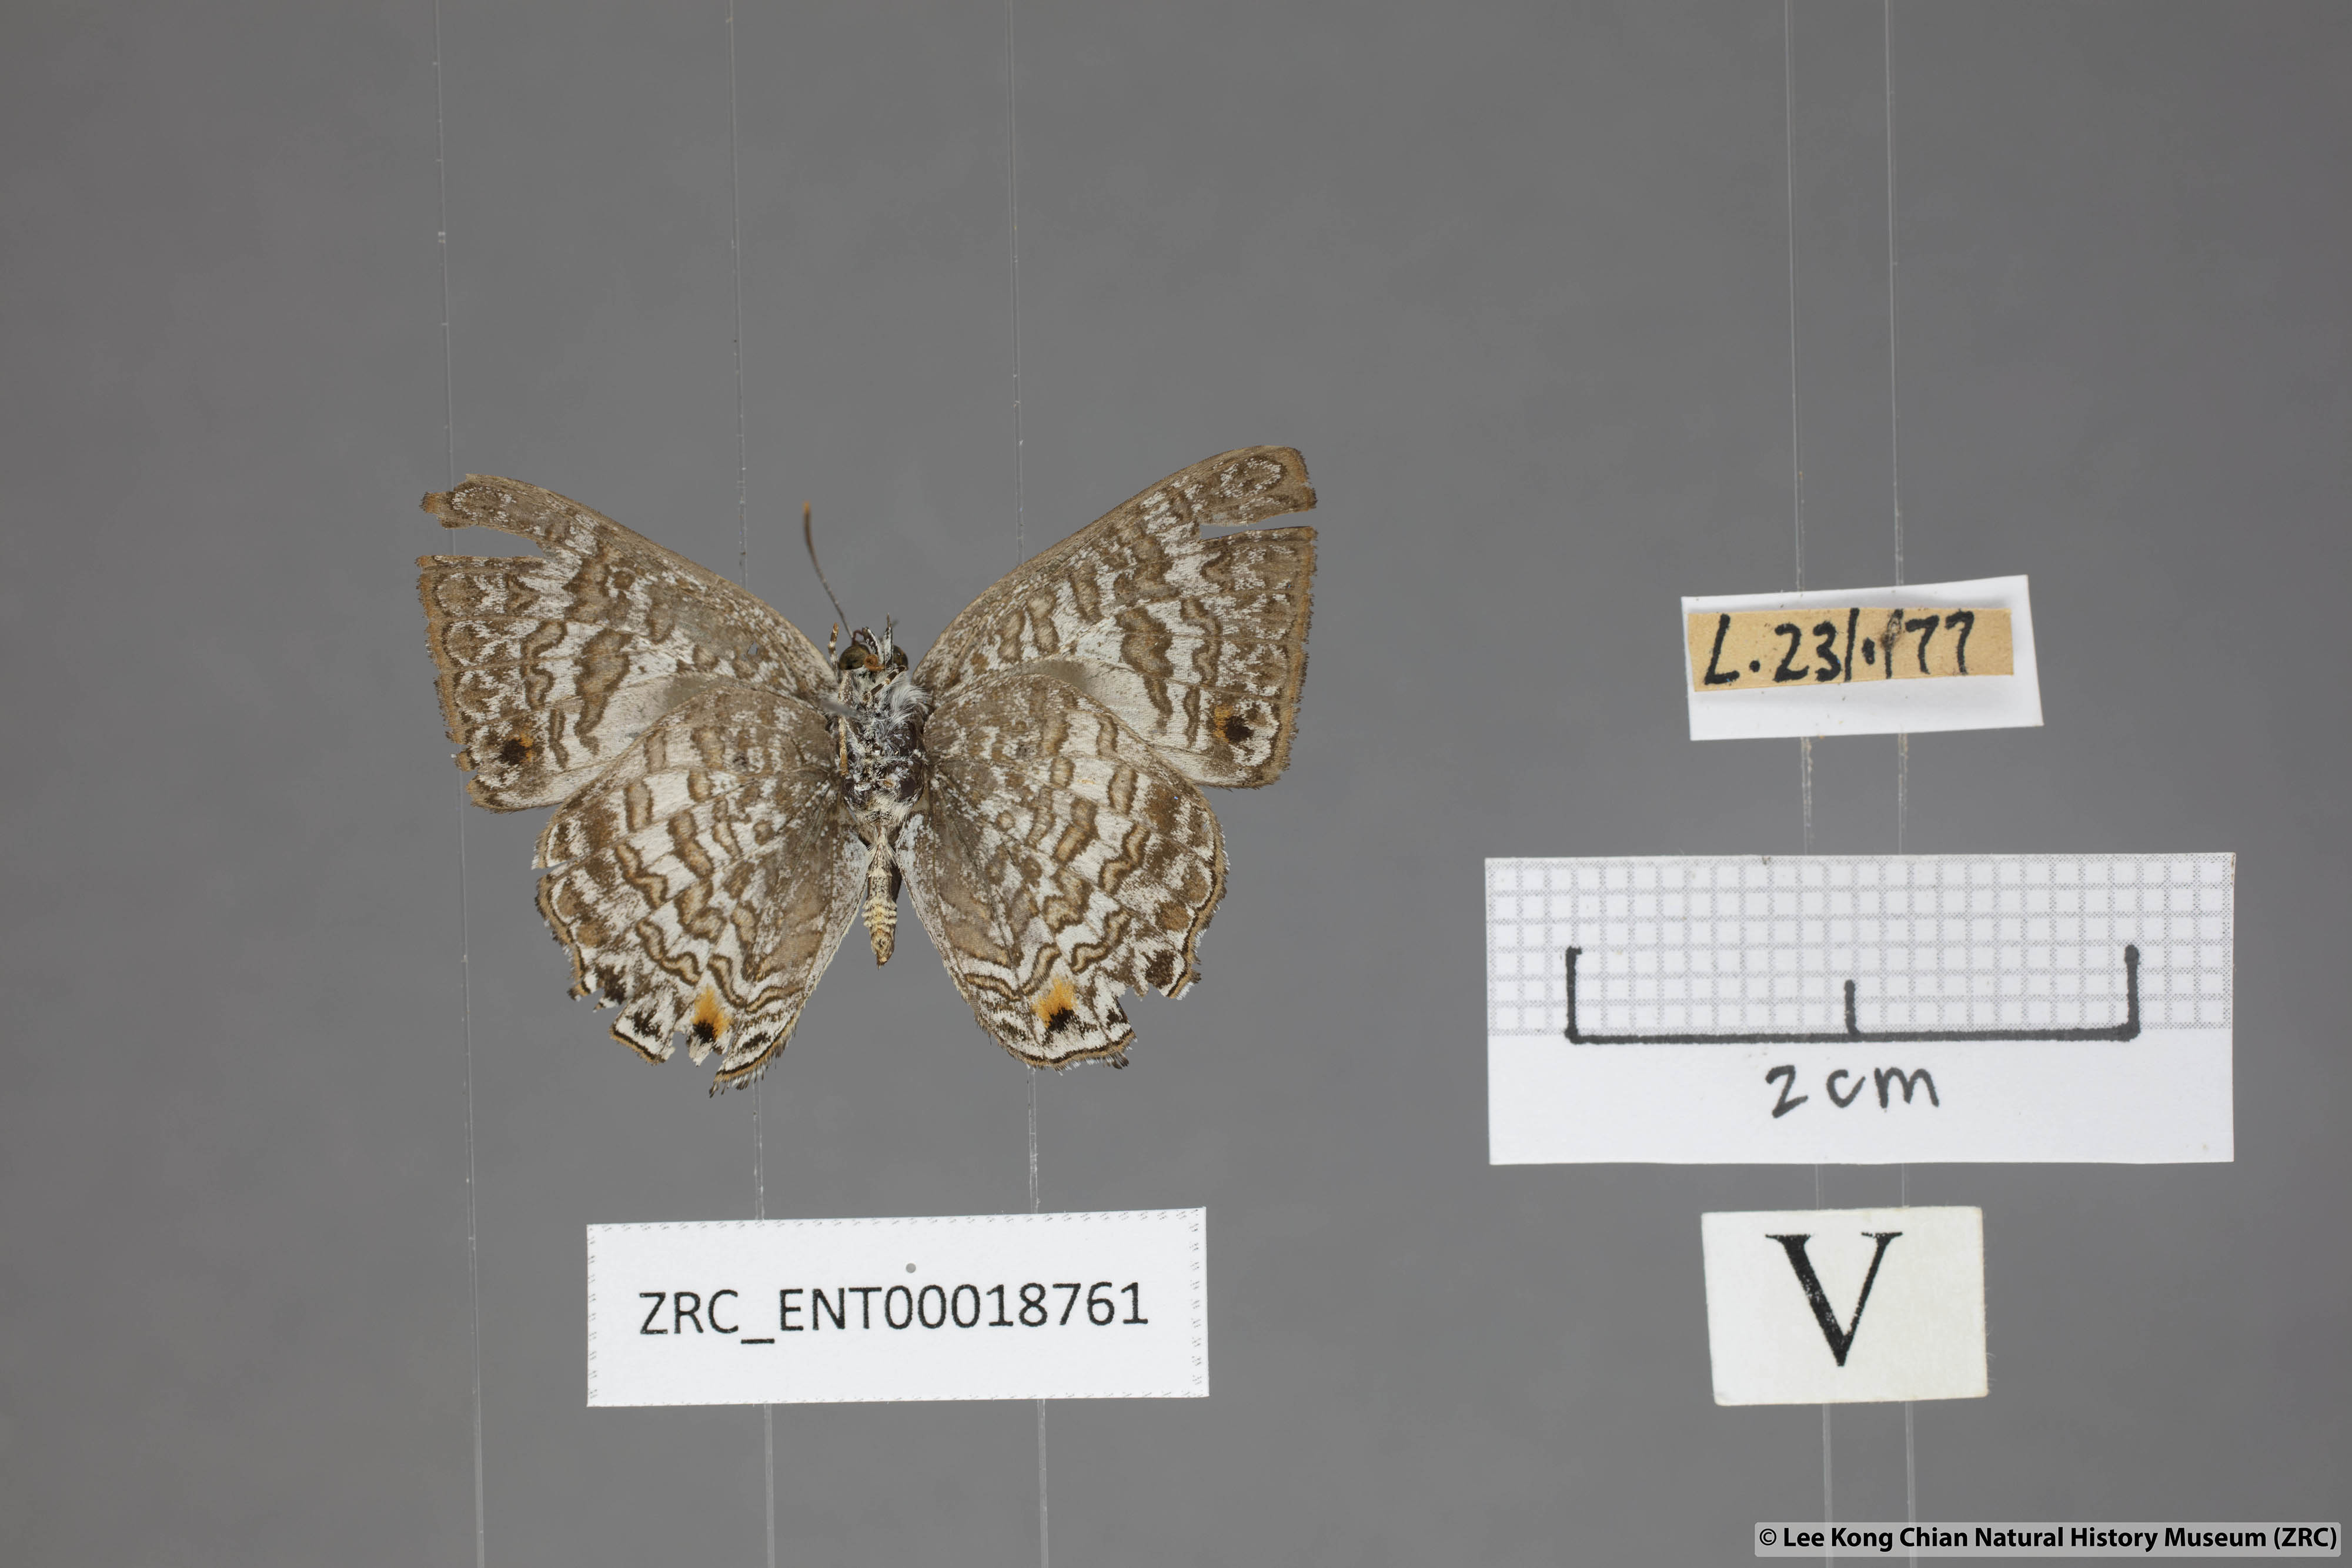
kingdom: Animalia
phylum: Arthropoda
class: Insecta
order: Lepidoptera
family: Lycaenidae
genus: Poritia
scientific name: Poritia erycinoides
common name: Blue gem
